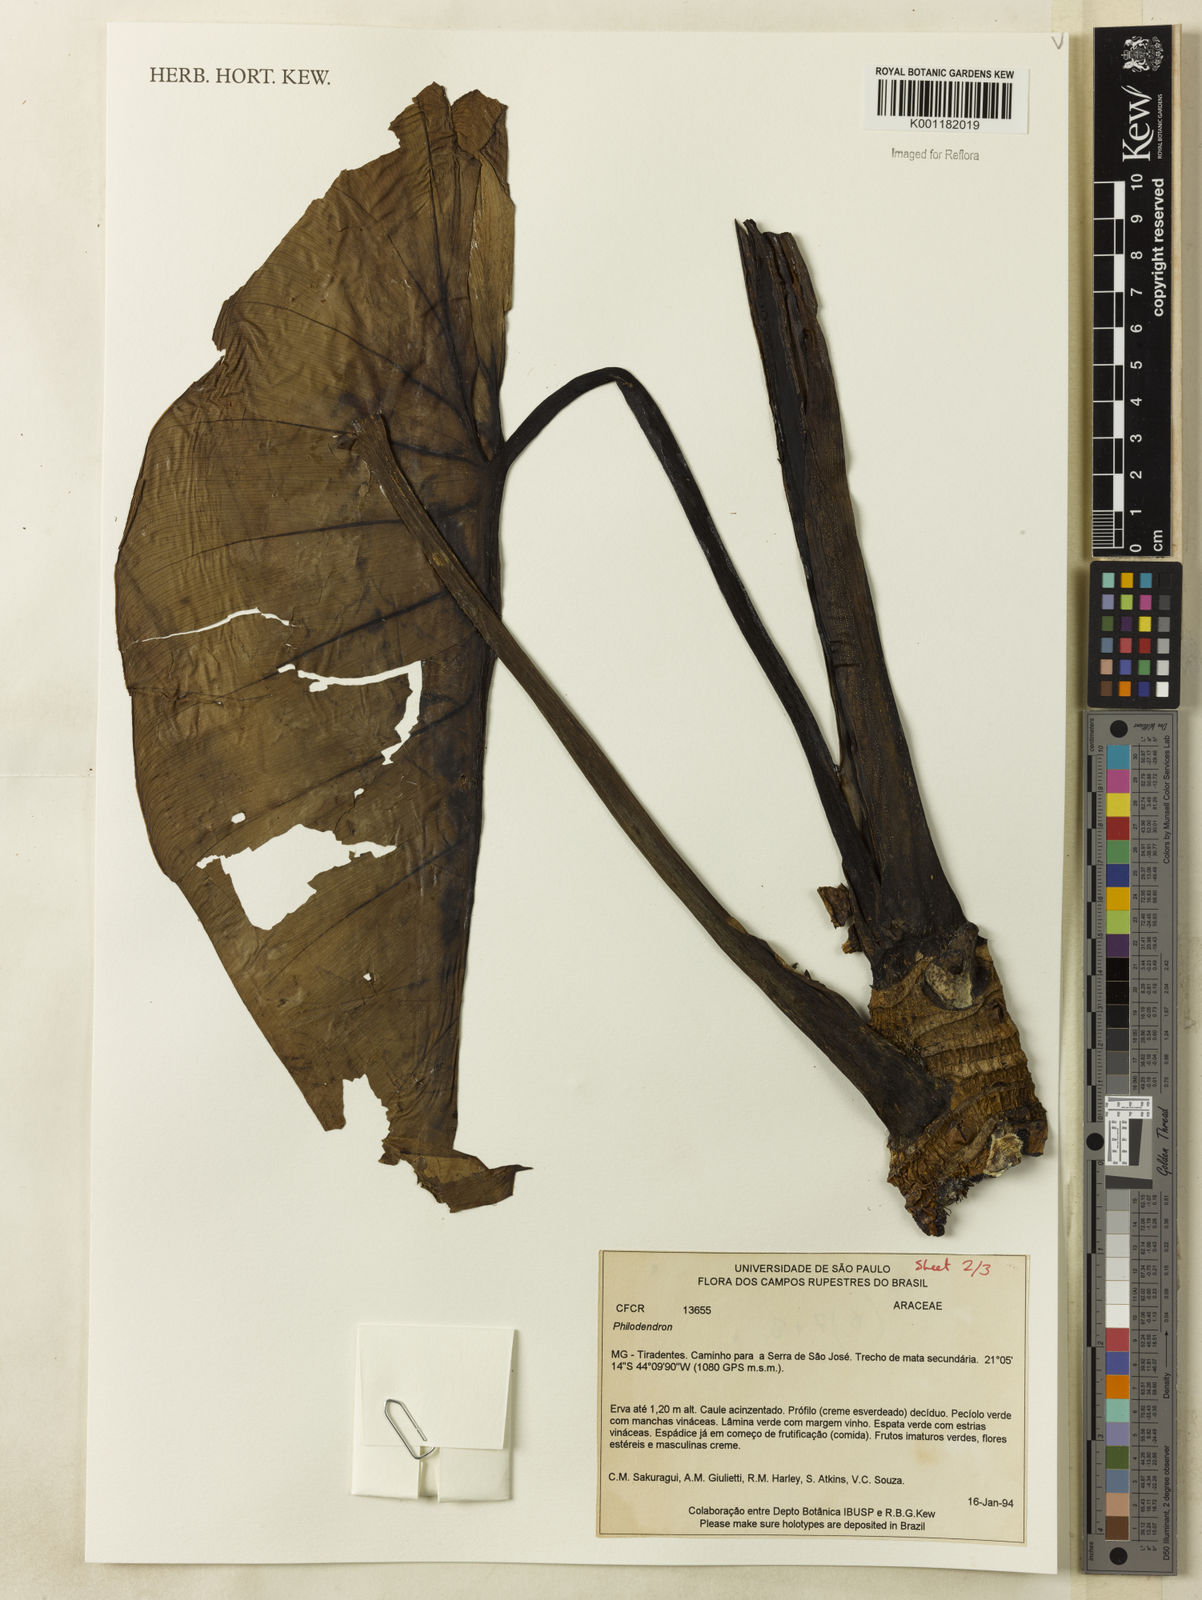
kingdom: Plantae
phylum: Tracheophyta
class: Liliopsida
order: Alismatales
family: Araceae
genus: Philodendron
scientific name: Philodendron
